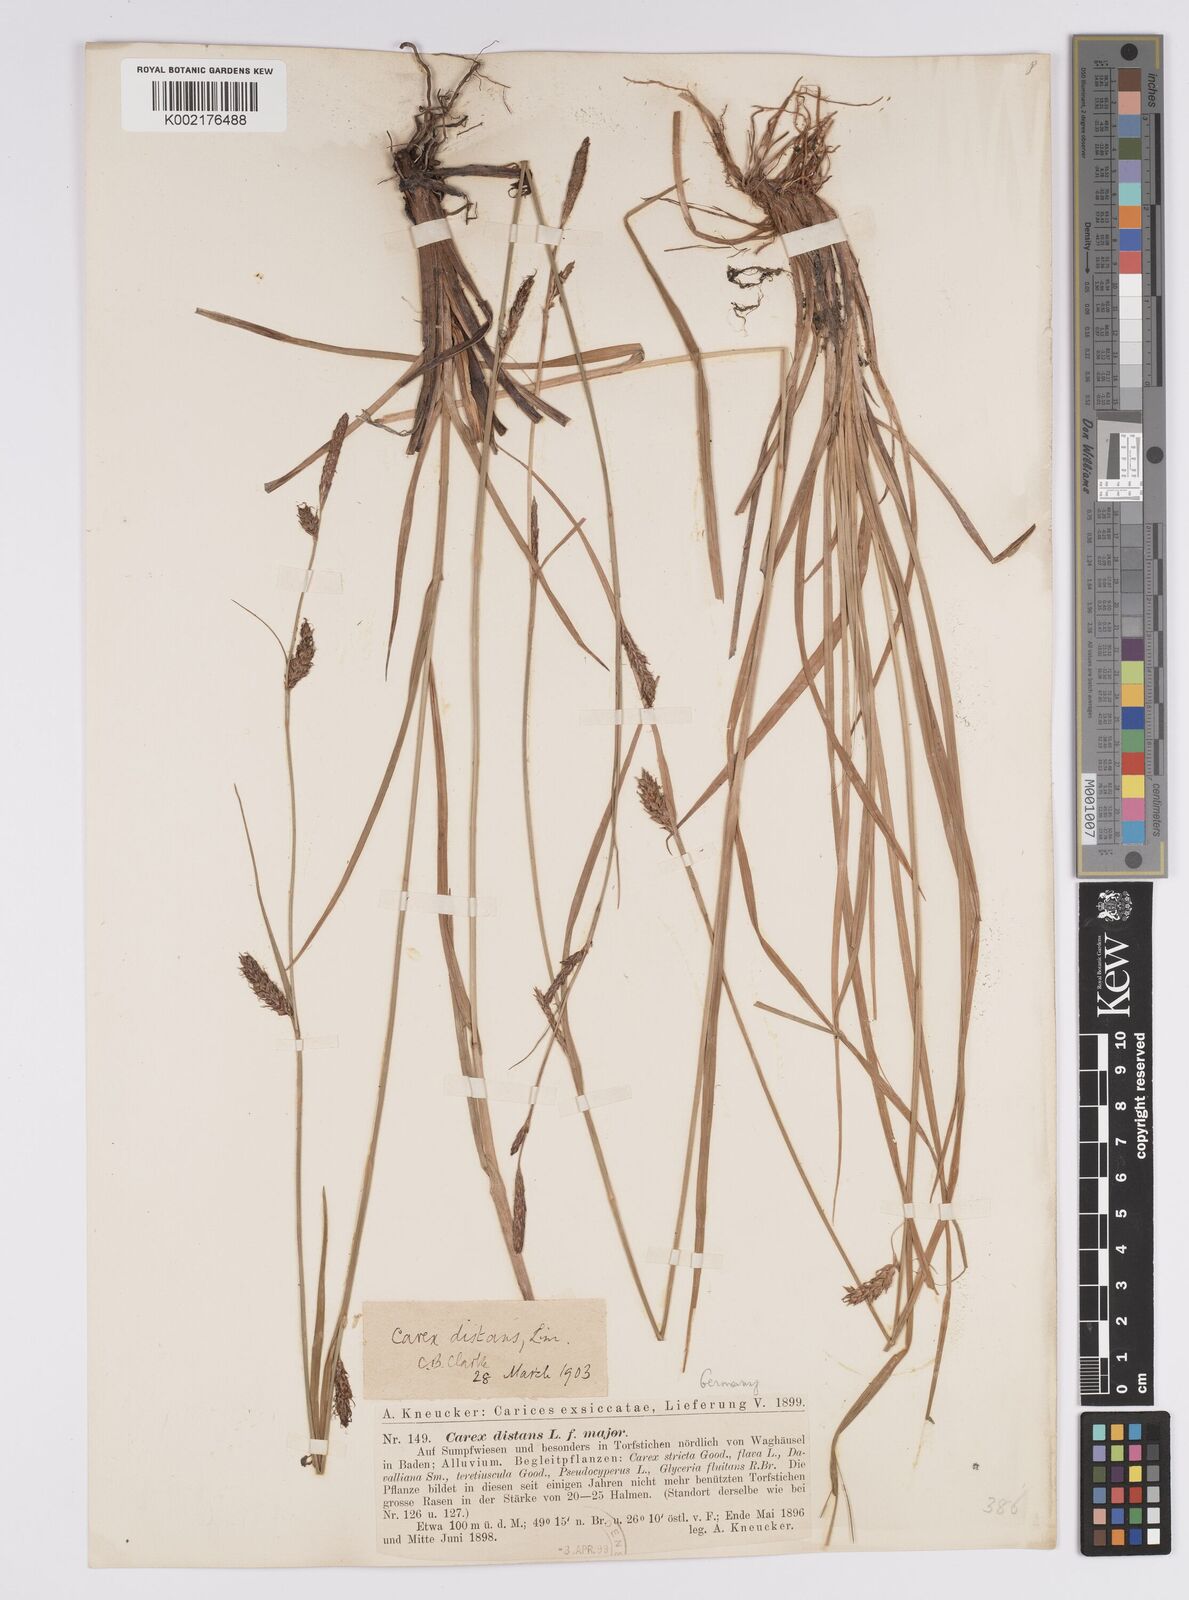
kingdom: Plantae
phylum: Tracheophyta
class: Liliopsida
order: Poales
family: Cyperaceae
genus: Carex
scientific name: Carex distans
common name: Distant sedge
